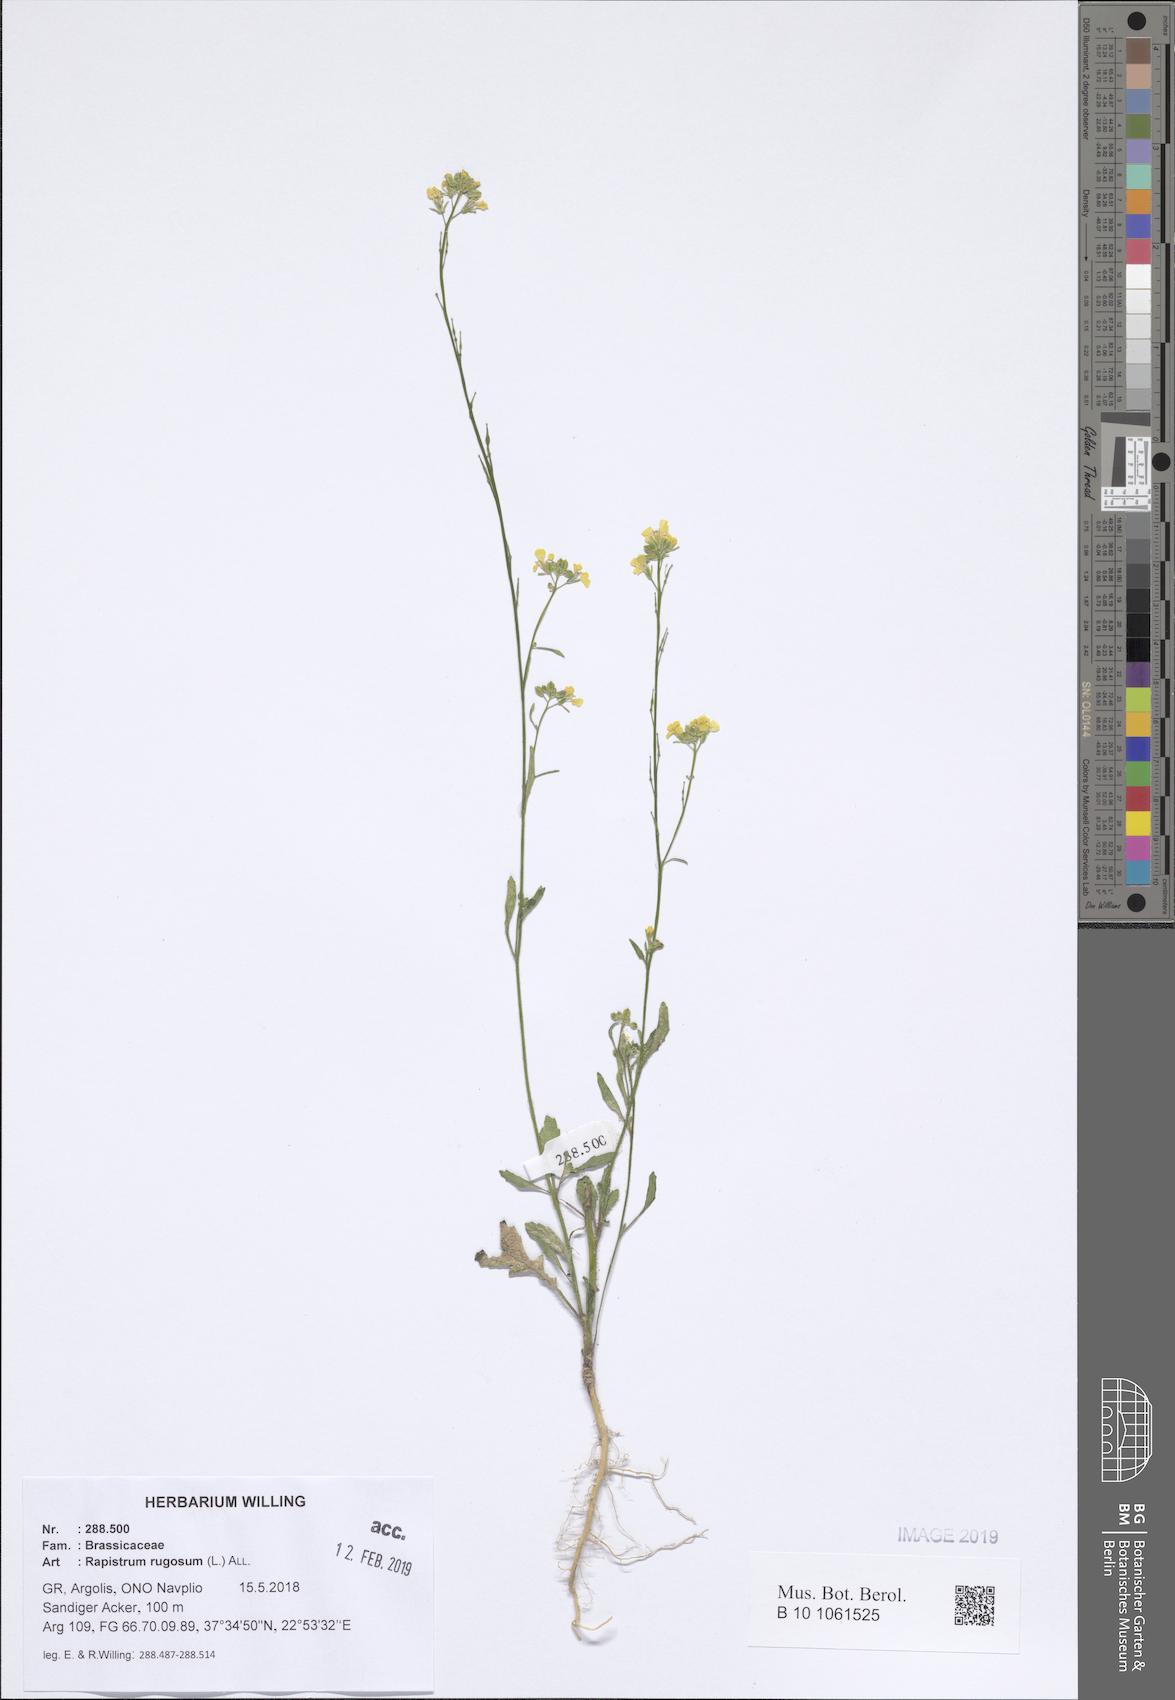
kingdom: Plantae
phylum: Tracheophyta
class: Magnoliopsida
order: Brassicales
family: Brassicaceae
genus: Rapistrum
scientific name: Rapistrum rugosum
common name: Annual bastardcabbage
